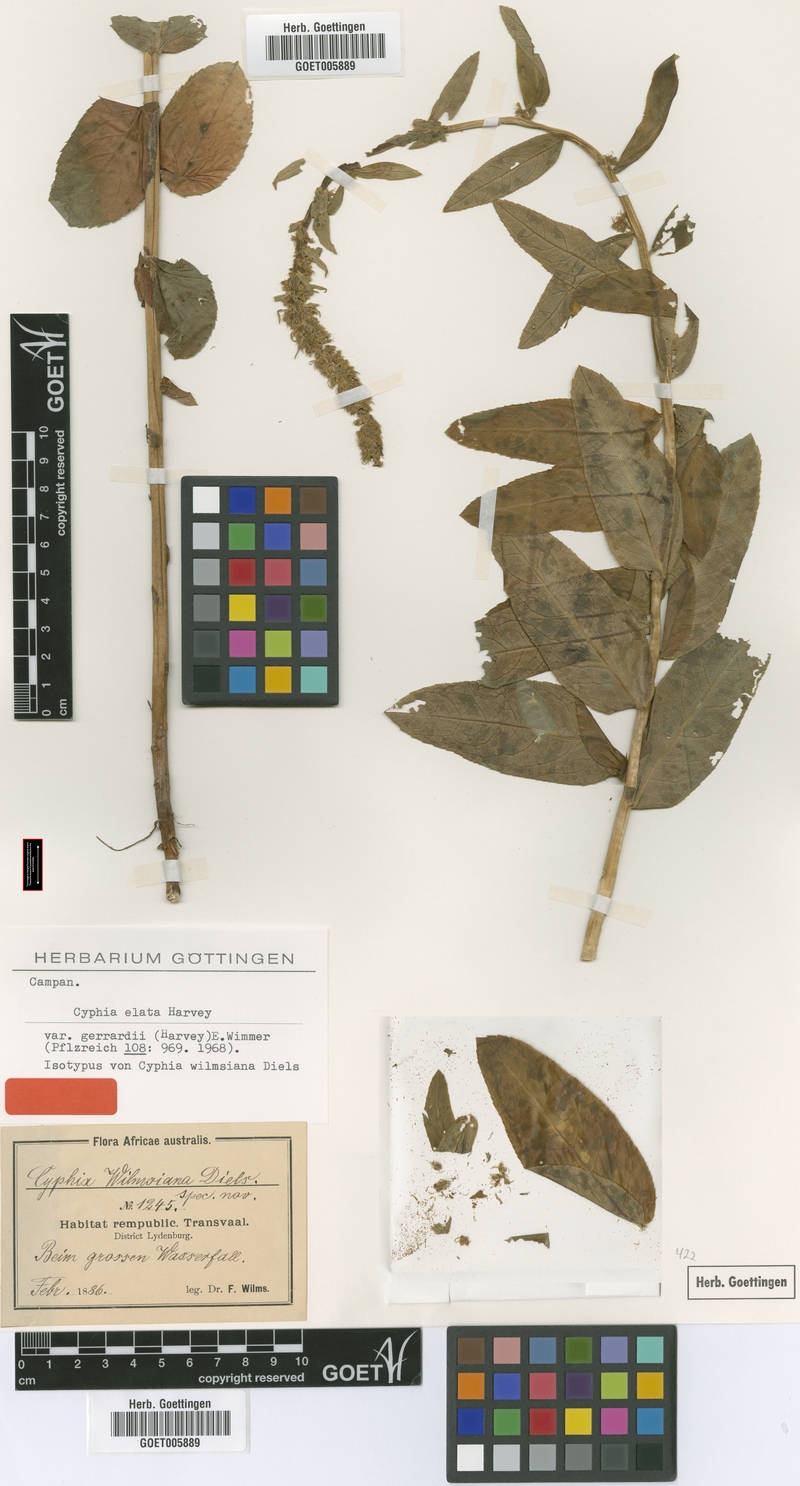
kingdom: Plantae
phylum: Tracheophyta
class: Magnoliopsida
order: Asterales
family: Campanulaceae
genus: Cyphia
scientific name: Cyphia elata
